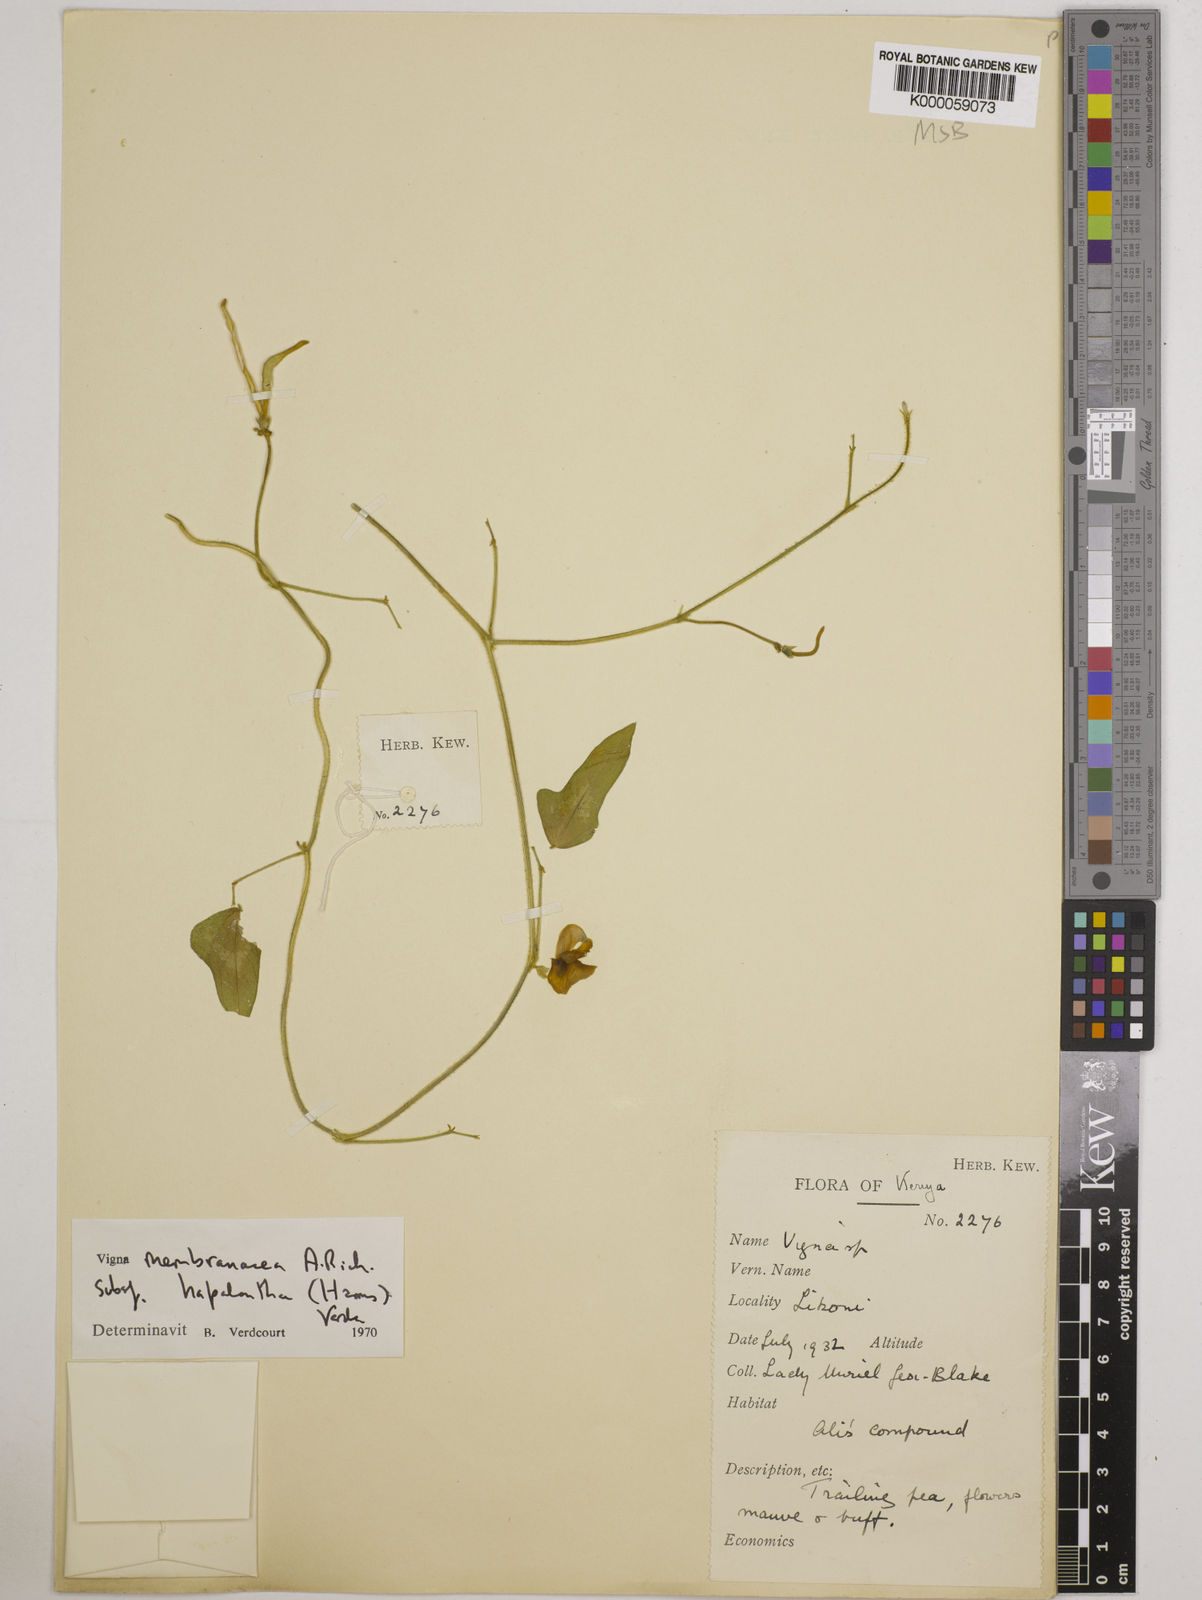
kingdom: Plantae
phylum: Tracheophyta
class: Magnoliopsida
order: Fabales
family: Fabaceae
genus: Vigna
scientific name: Vigna membranacea
